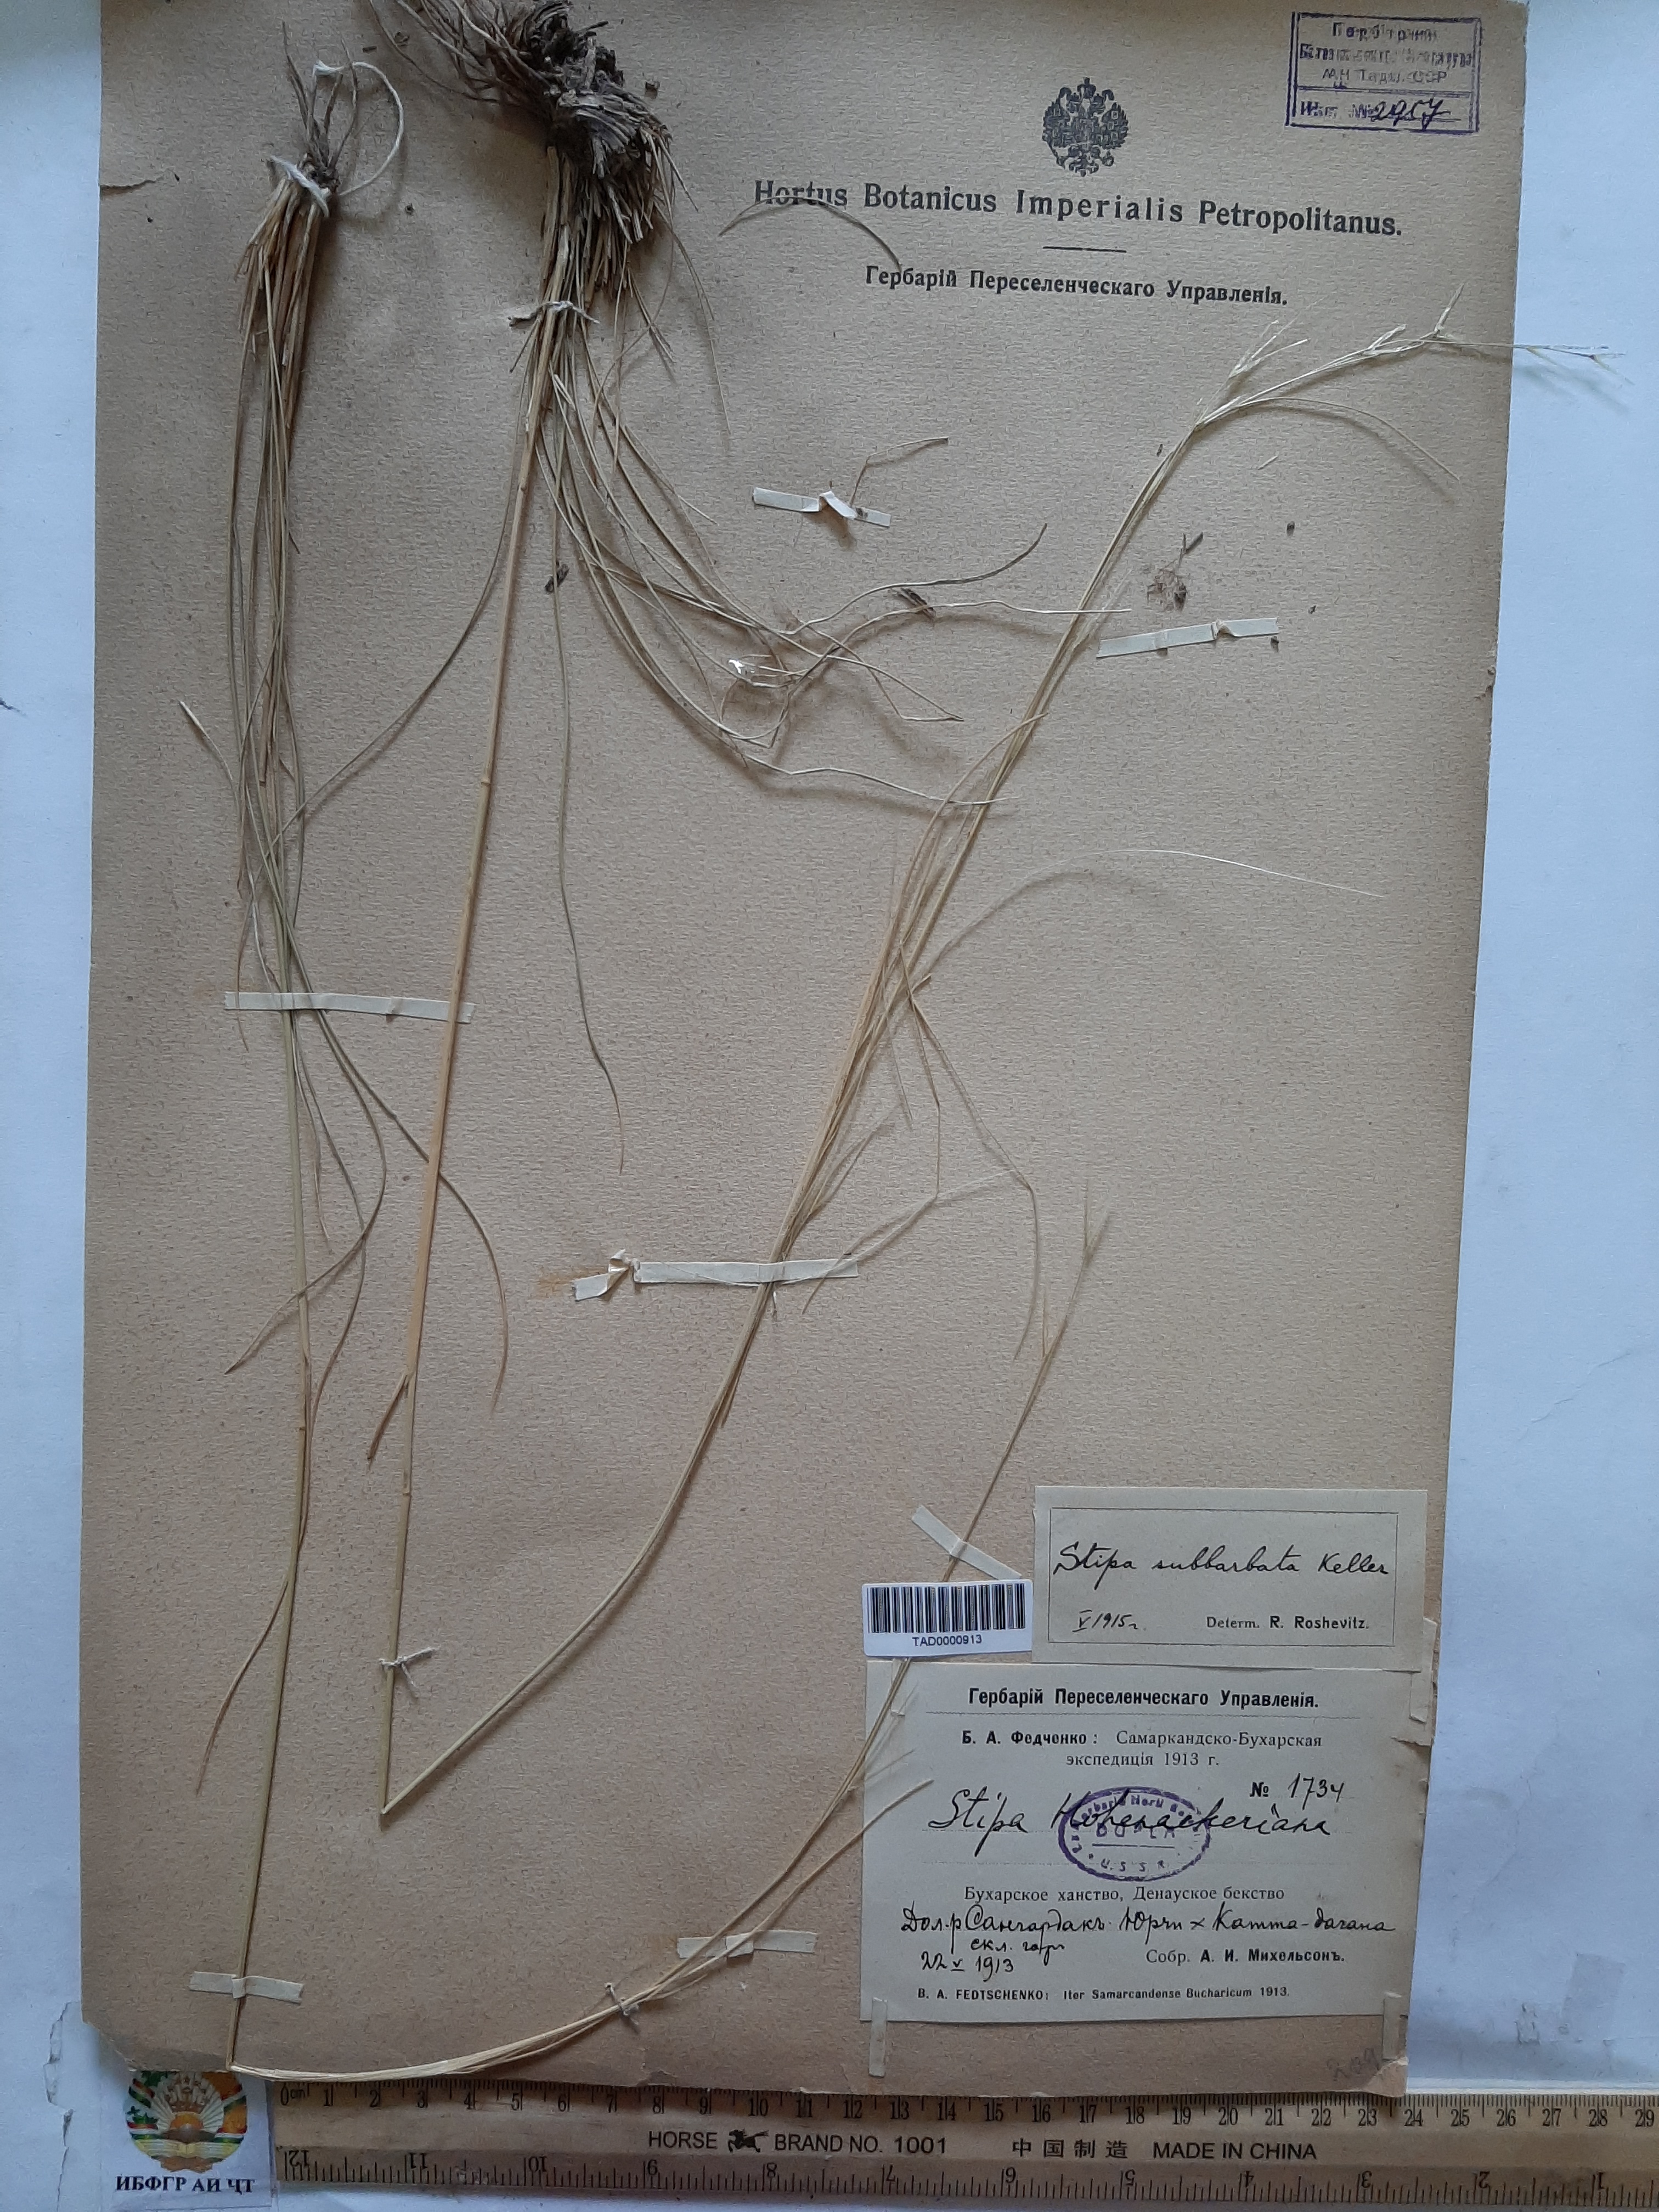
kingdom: Plantae
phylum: Tracheophyta
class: Liliopsida
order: Poales
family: Poaceae
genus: Stipa
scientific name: Stipa
